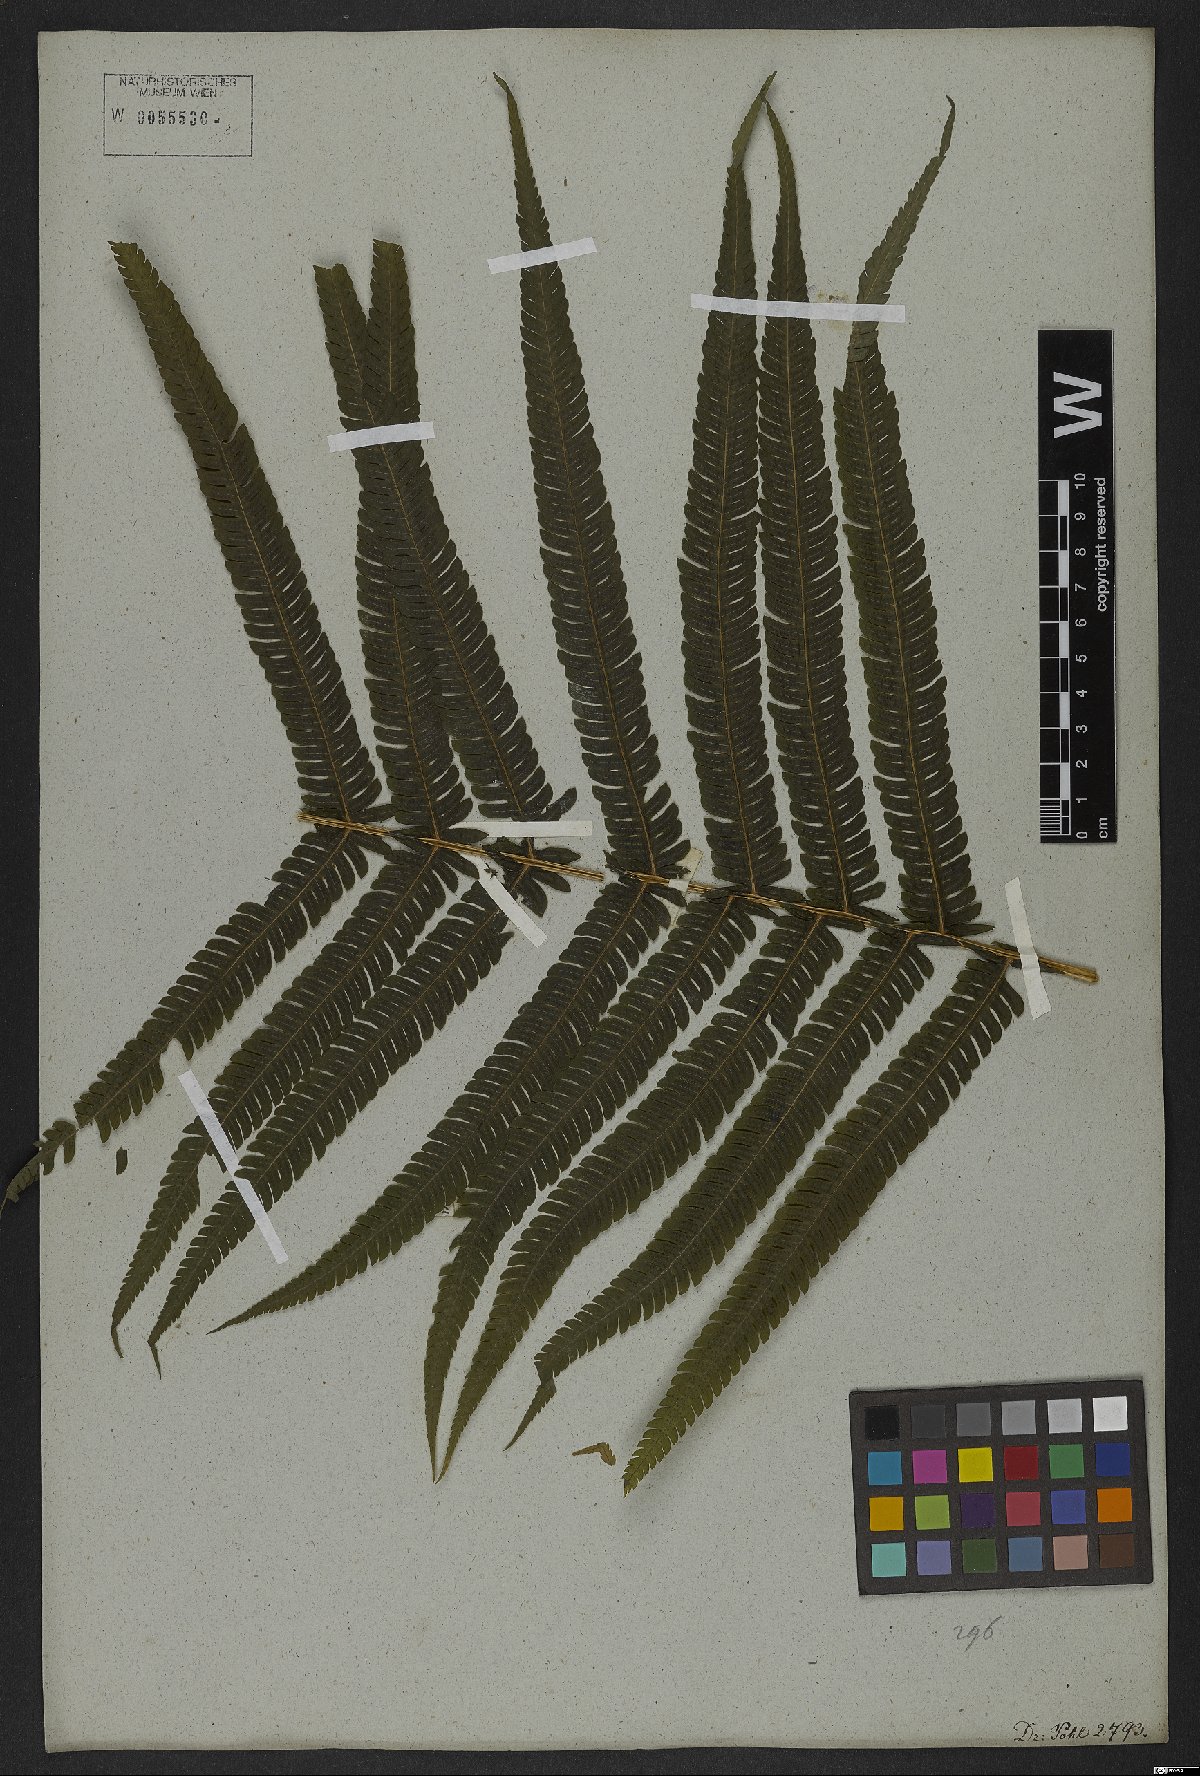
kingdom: Plantae
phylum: Tracheophyta
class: Polypodiopsida
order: Polypodiales
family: Thelypteridaceae
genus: Pelazoneuron
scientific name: Pelazoneuron patens
